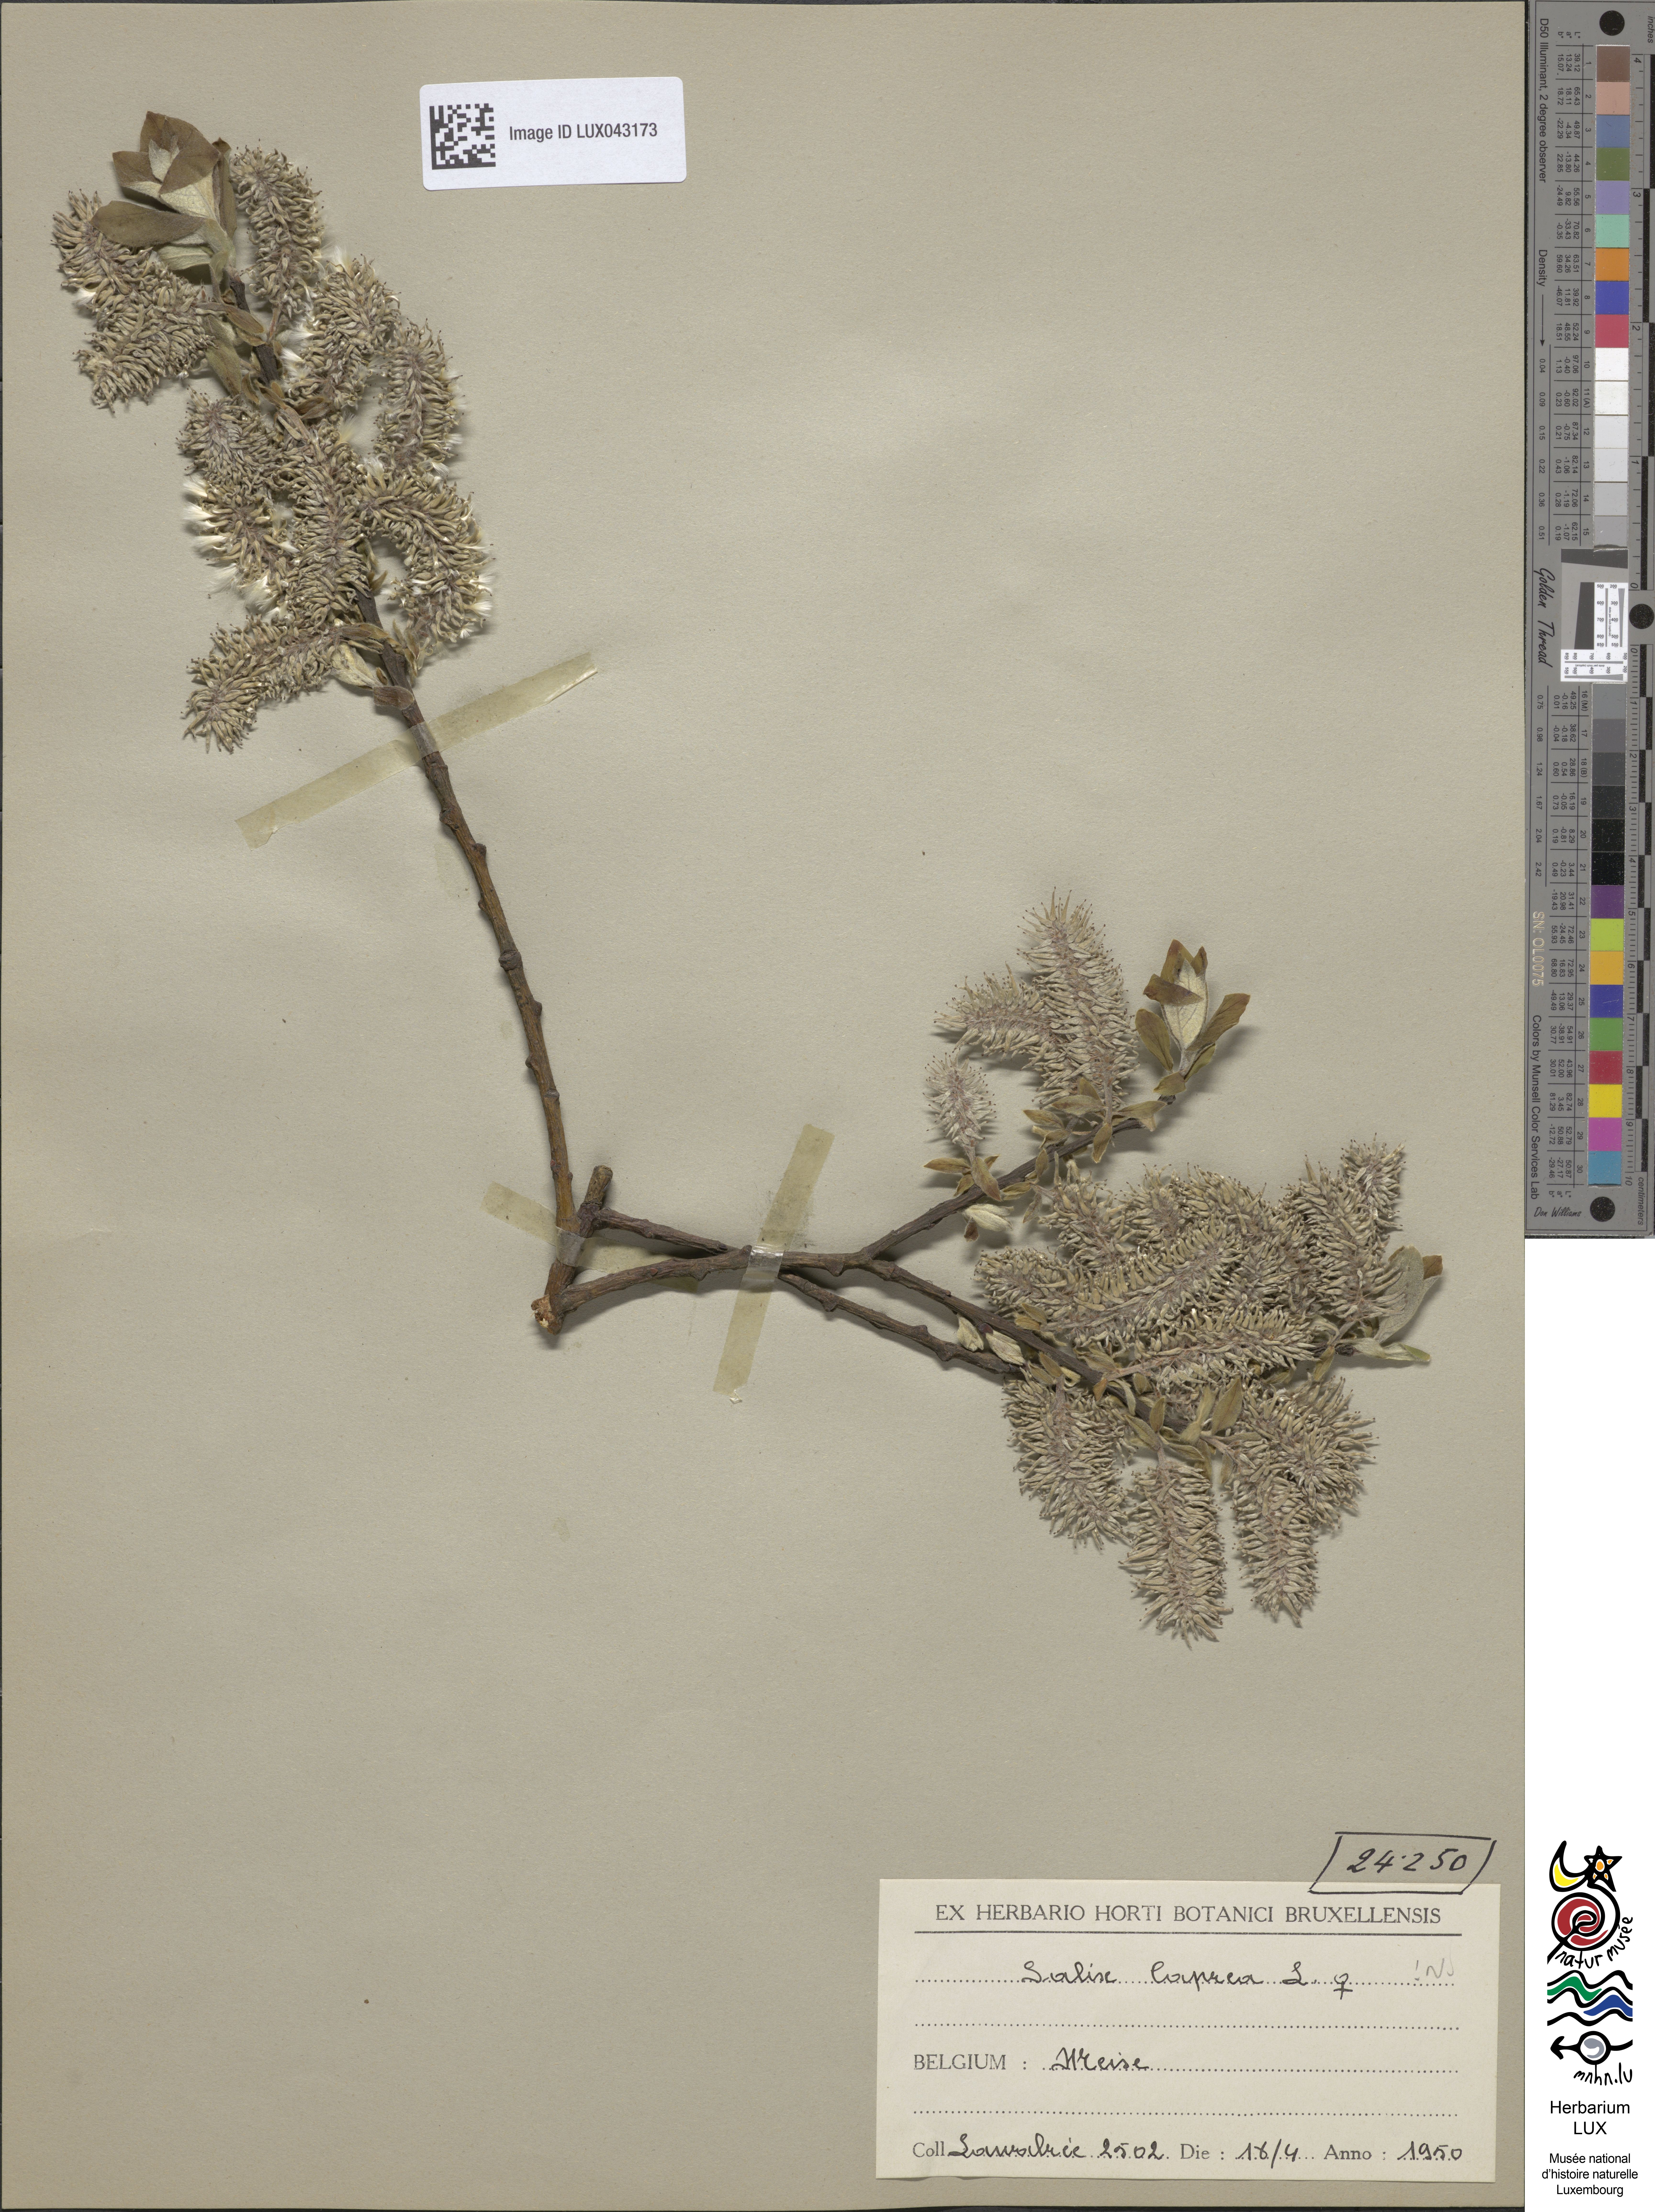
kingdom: Plantae
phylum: Tracheophyta
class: Magnoliopsida
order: Malpighiales
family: Salicaceae
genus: Salix
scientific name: Salix caprea
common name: Goat willow
